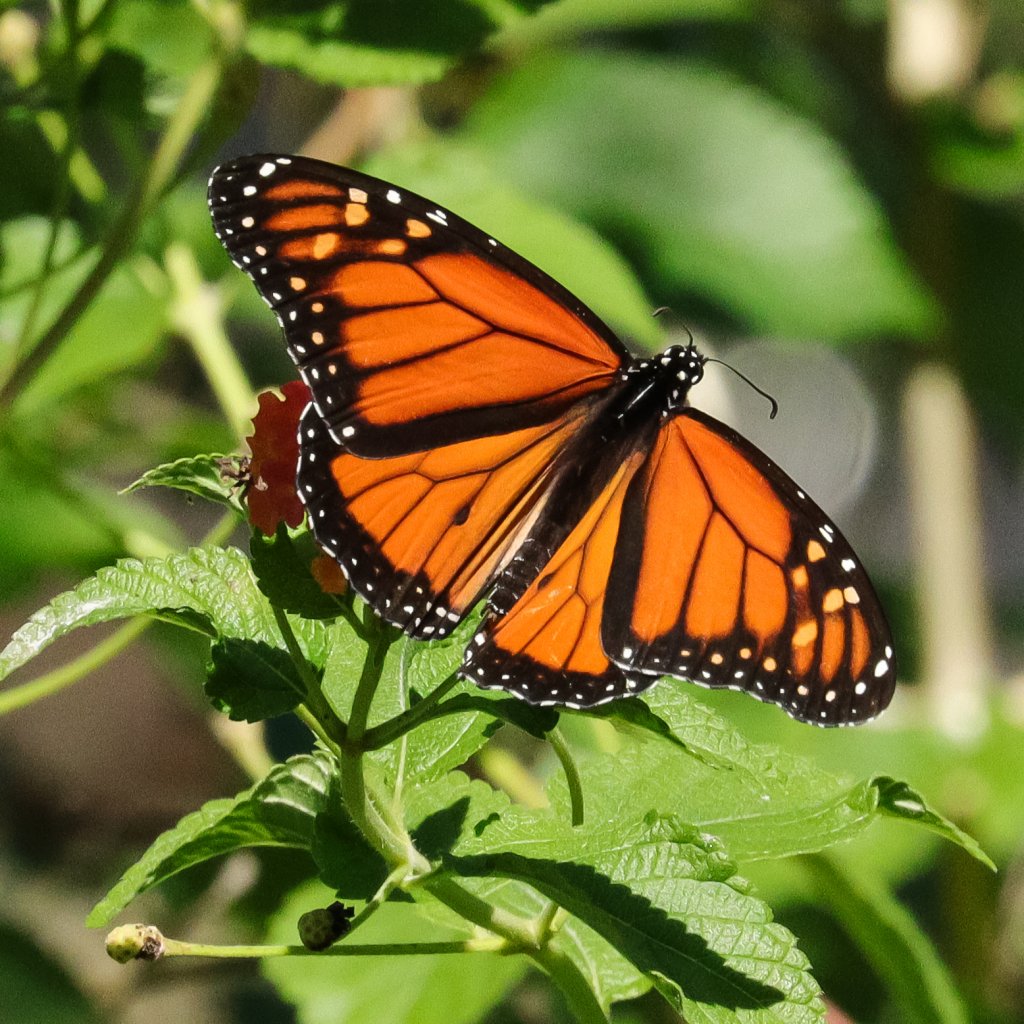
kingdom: Animalia
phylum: Arthropoda
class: Insecta
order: Lepidoptera
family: Nymphalidae
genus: Danaus
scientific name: Danaus plexippus
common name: Monarch
